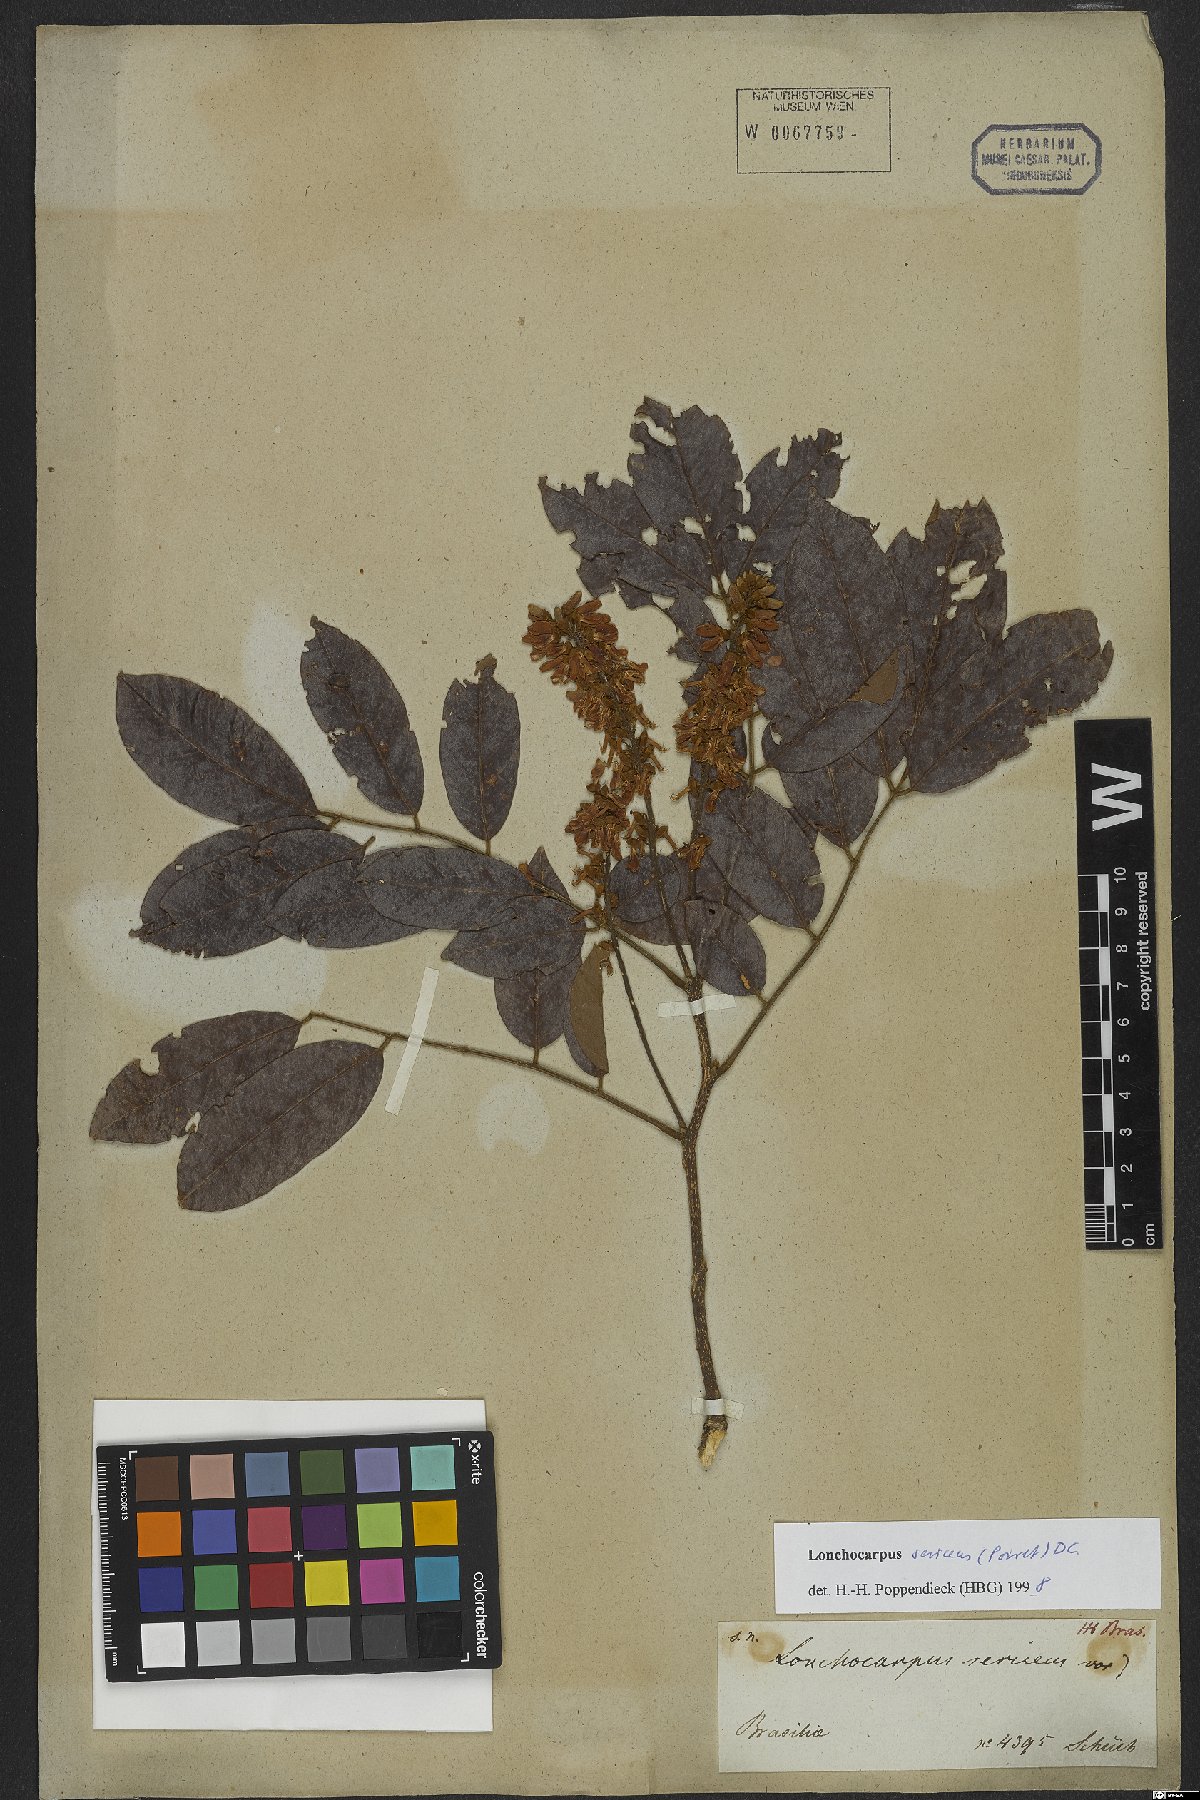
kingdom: Plantae
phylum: Tracheophyta
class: Magnoliopsida
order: Fabales
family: Fabaceae
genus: Lonchocarpus
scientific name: Lonchocarpus sericeus
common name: Savonette
